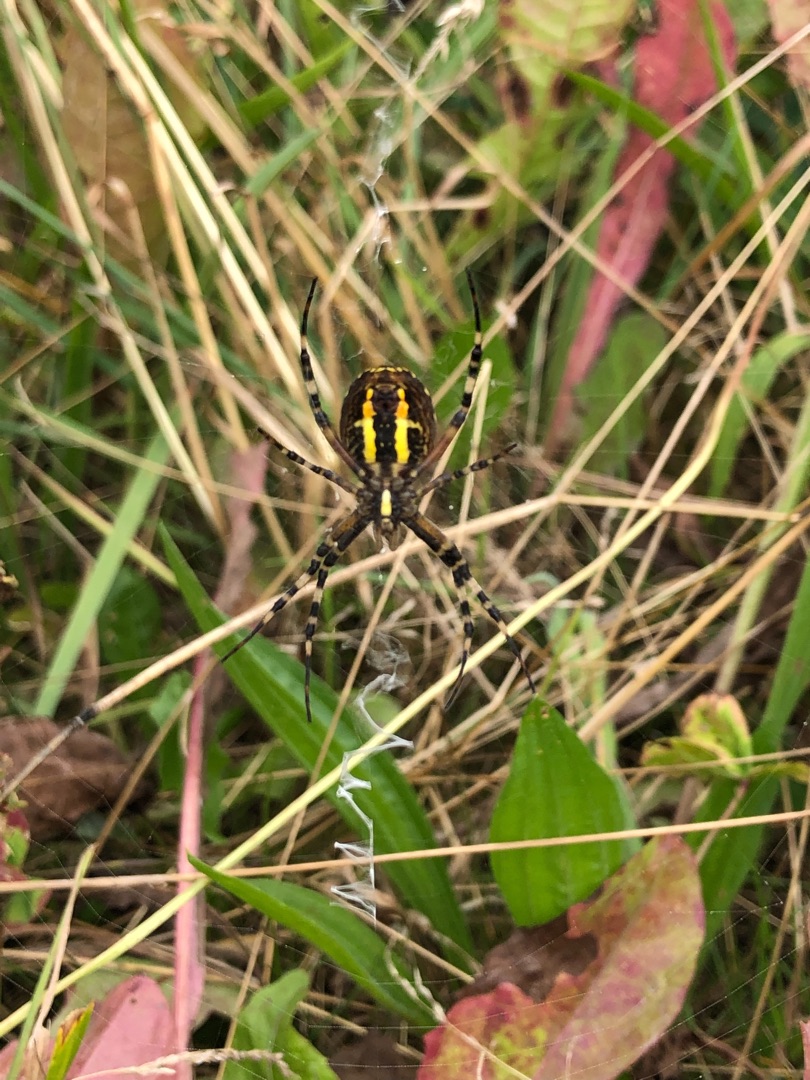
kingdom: Animalia
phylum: Arthropoda
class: Arachnida
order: Araneae
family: Araneidae
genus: Argiope
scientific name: Argiope bruennichi
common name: Hvepseedderkop
